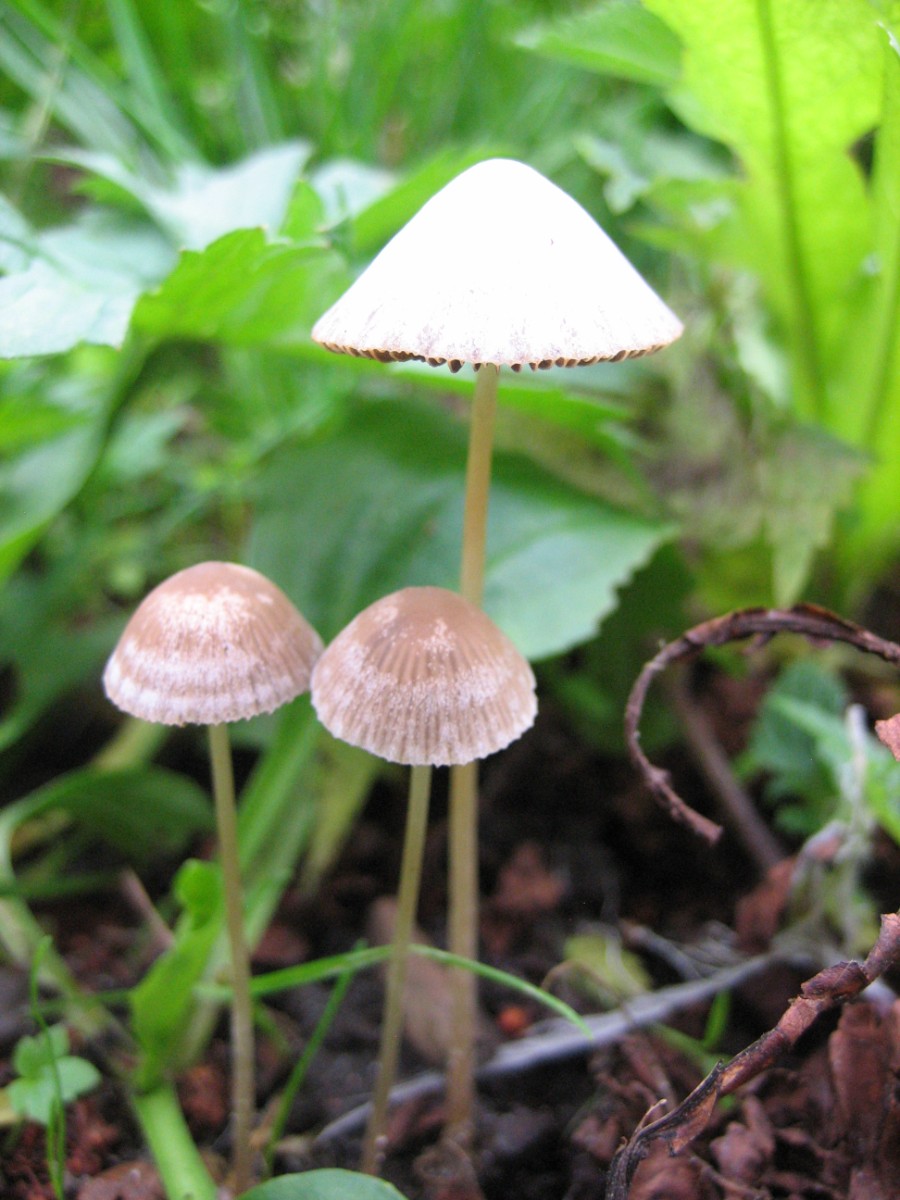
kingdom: Fungi
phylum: Basidiomycota
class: Agaricomycetes
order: Agaricales
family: Psathyrellaceae
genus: Psathyrella
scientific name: Psathyrella
